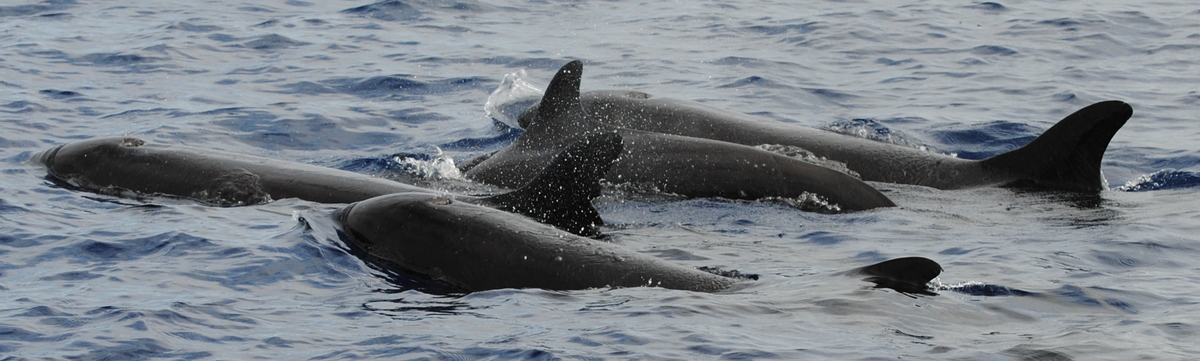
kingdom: Animalia
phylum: Chordata
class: Mammalia
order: Cetacea
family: Delphinidae
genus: Pseudorca
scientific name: Pseudorca crassidens
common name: False Killer Whale
